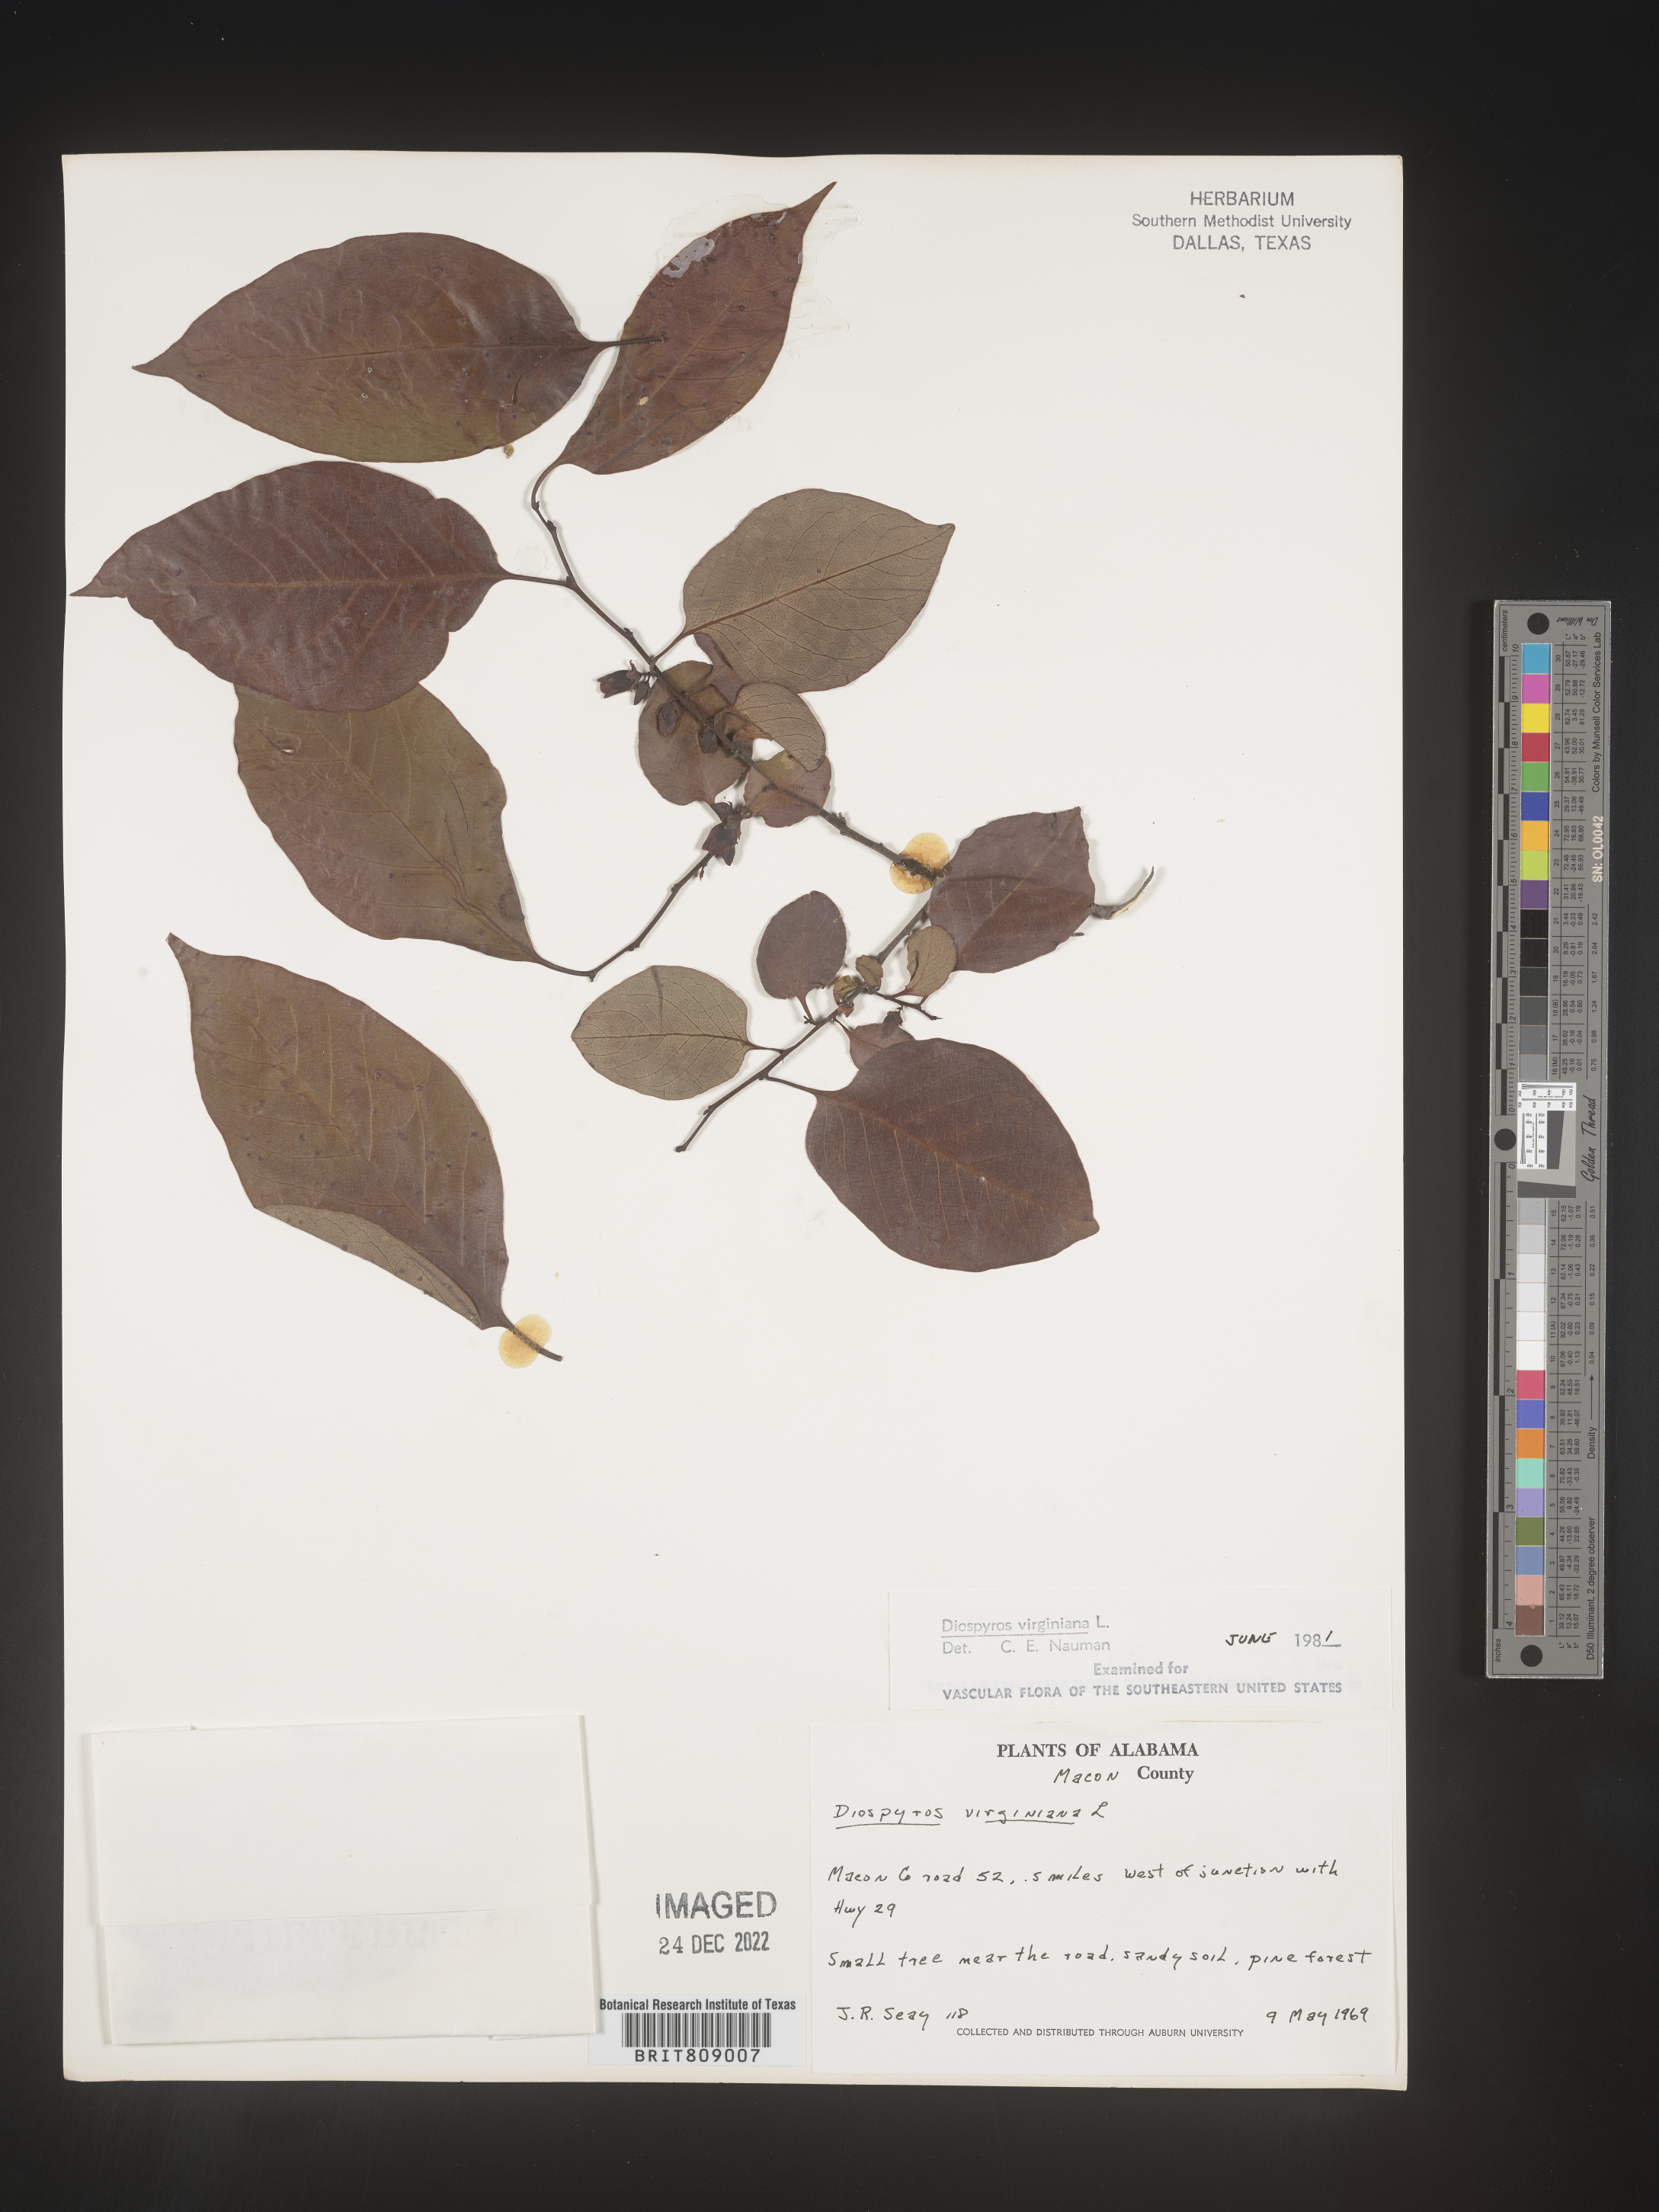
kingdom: Plantae
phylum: Tracheophyta
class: Magnoliopsida
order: Ericales
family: Ebenaceae
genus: Diospyros
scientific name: Diospyros virginiana
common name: Persimmon
